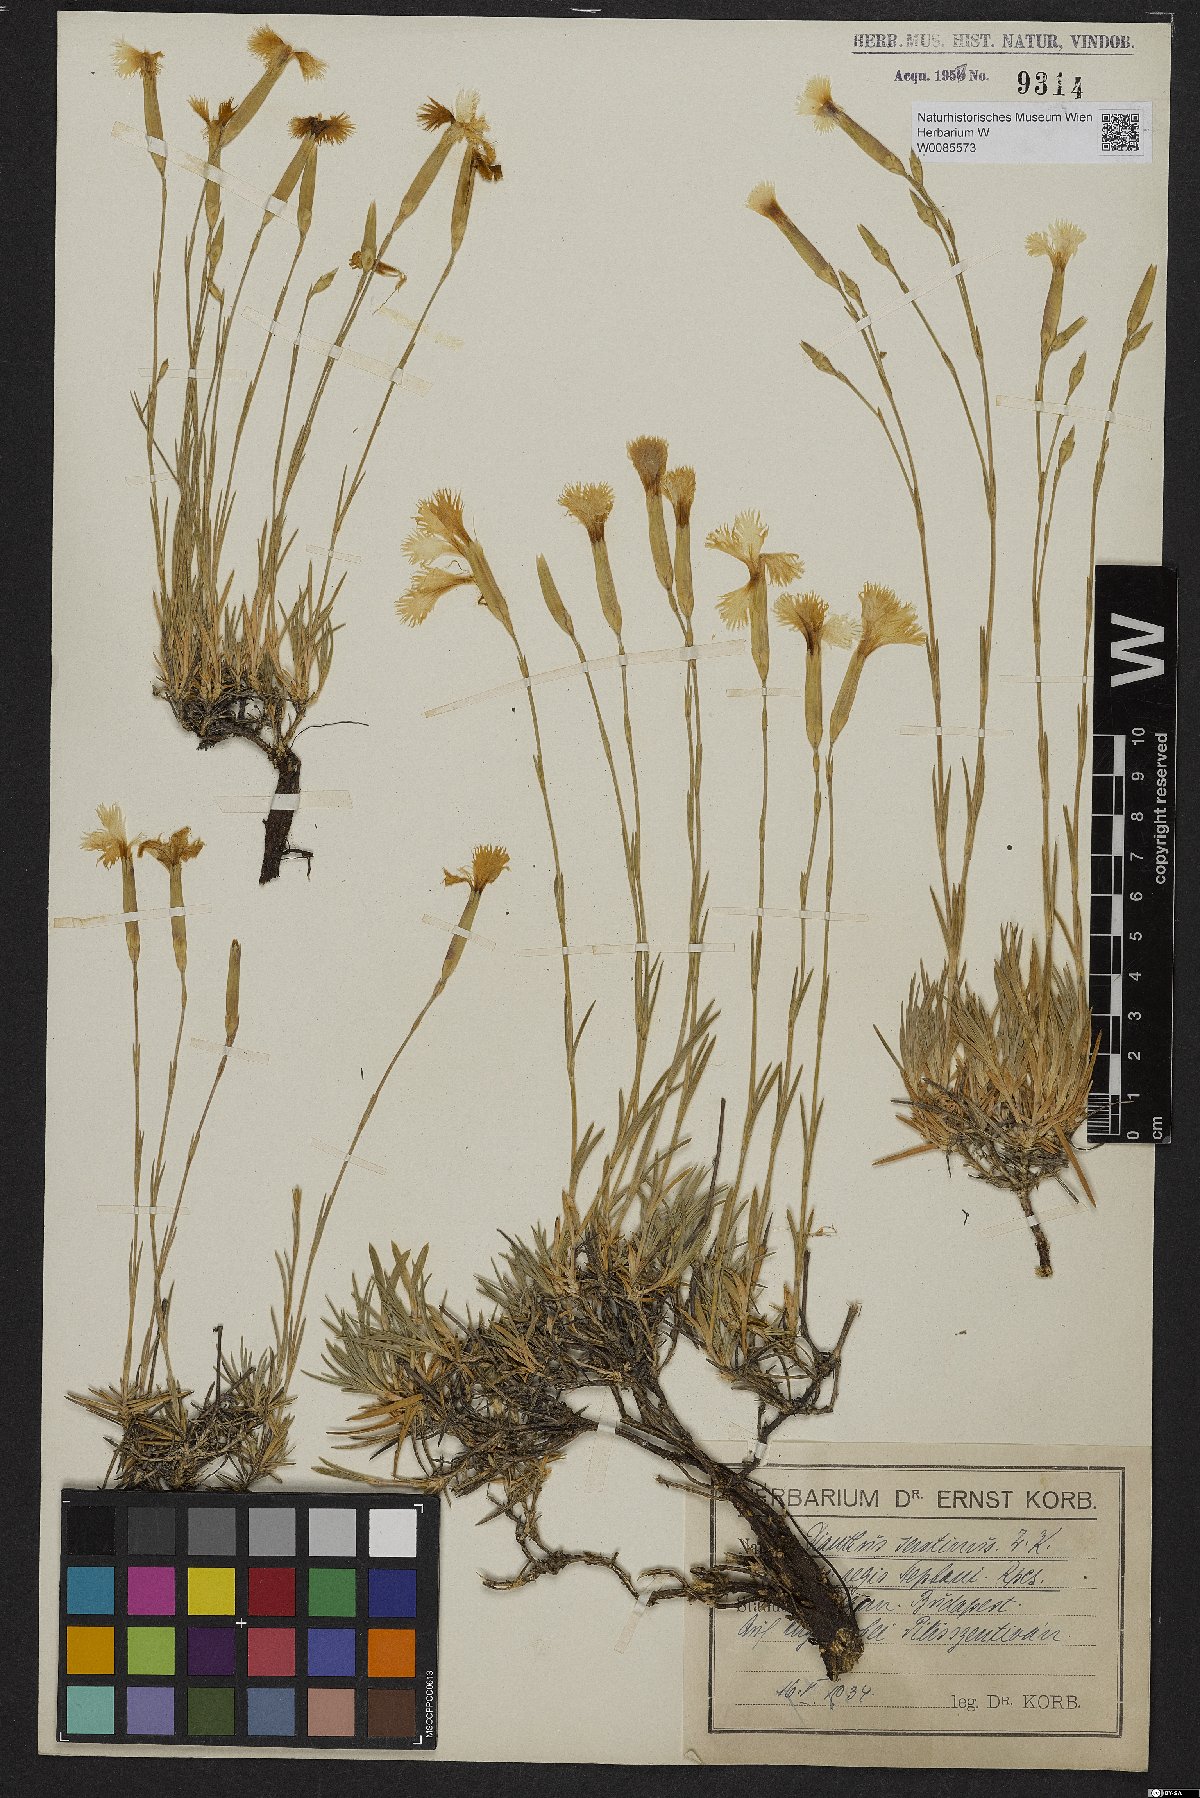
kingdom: Plantae
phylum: Tracheophyta
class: Magnoliopsida
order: Caryophyllales
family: Caryophyllaceae
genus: Dianthus
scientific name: Dianthus plumarius
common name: Pink
